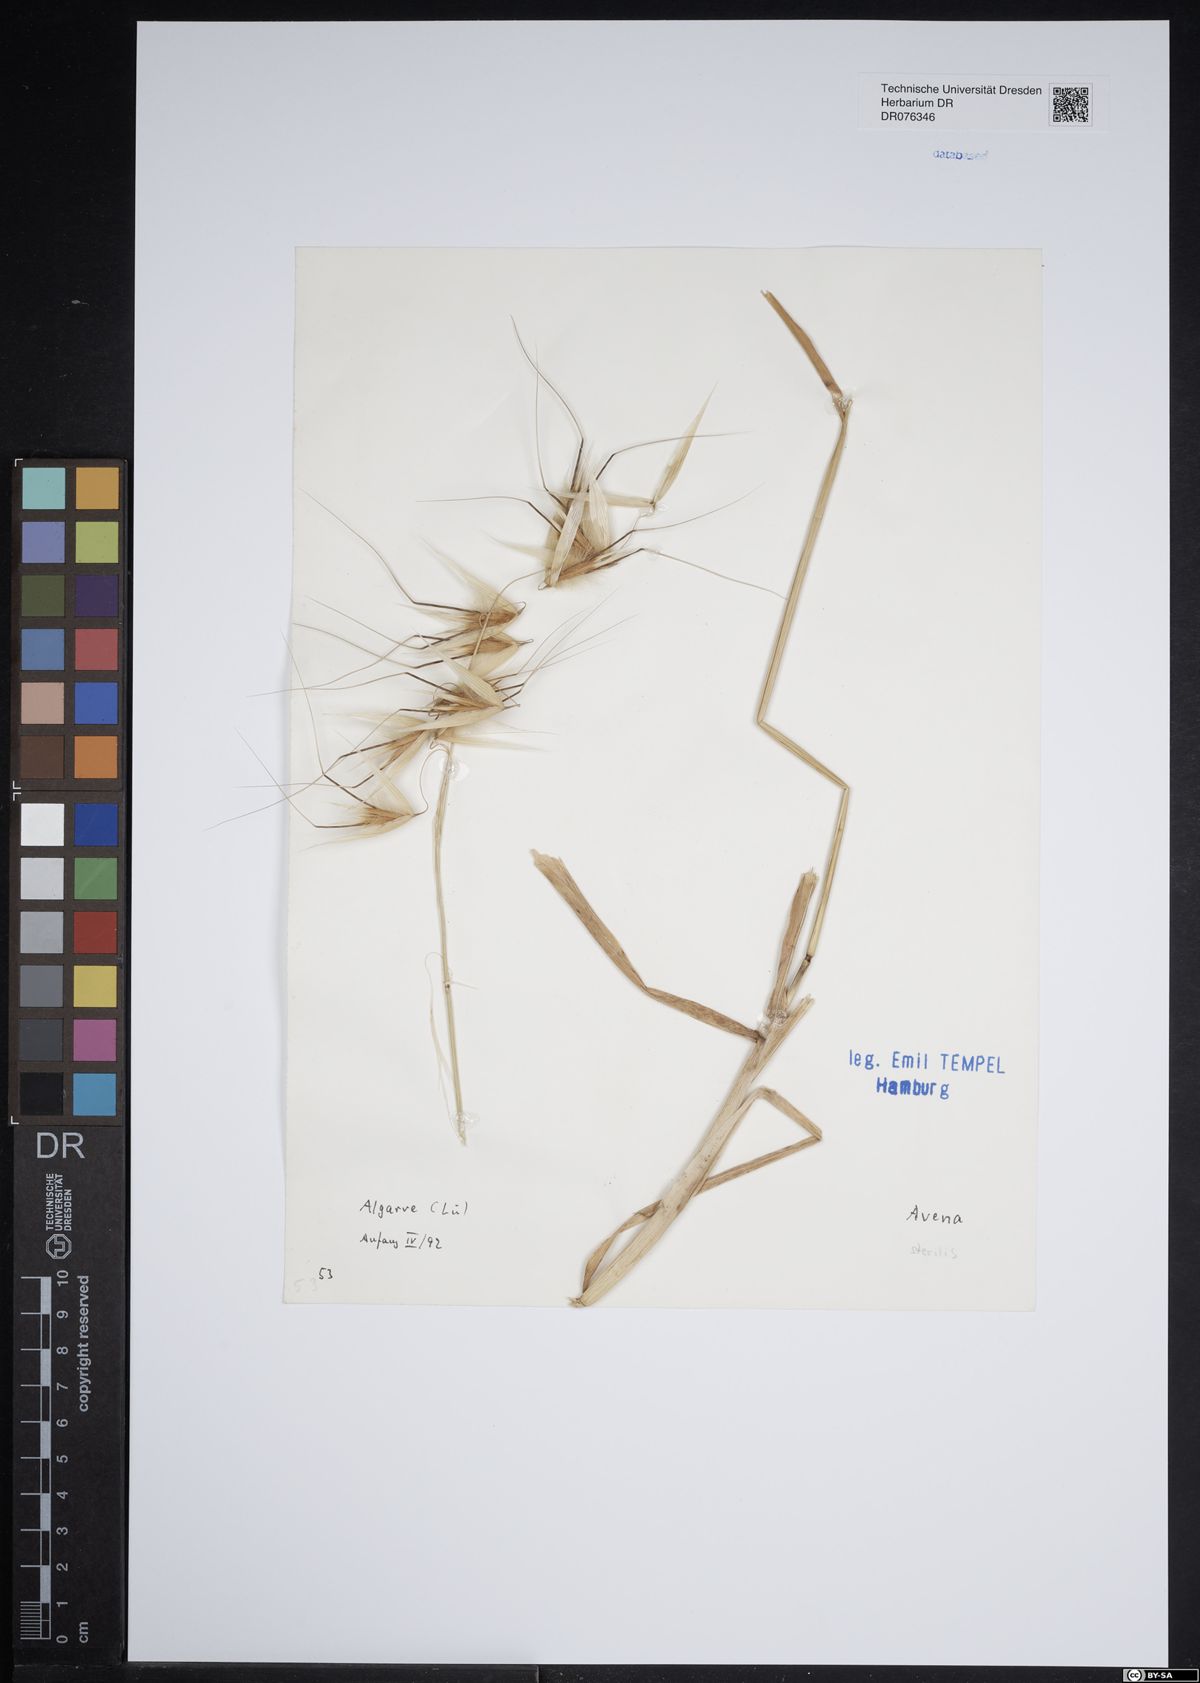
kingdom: Plantae
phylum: Tracheophyta
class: Liliopsida
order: Poales
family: Poaceae
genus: Avena
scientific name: Avena sterilis
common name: Animated oat
